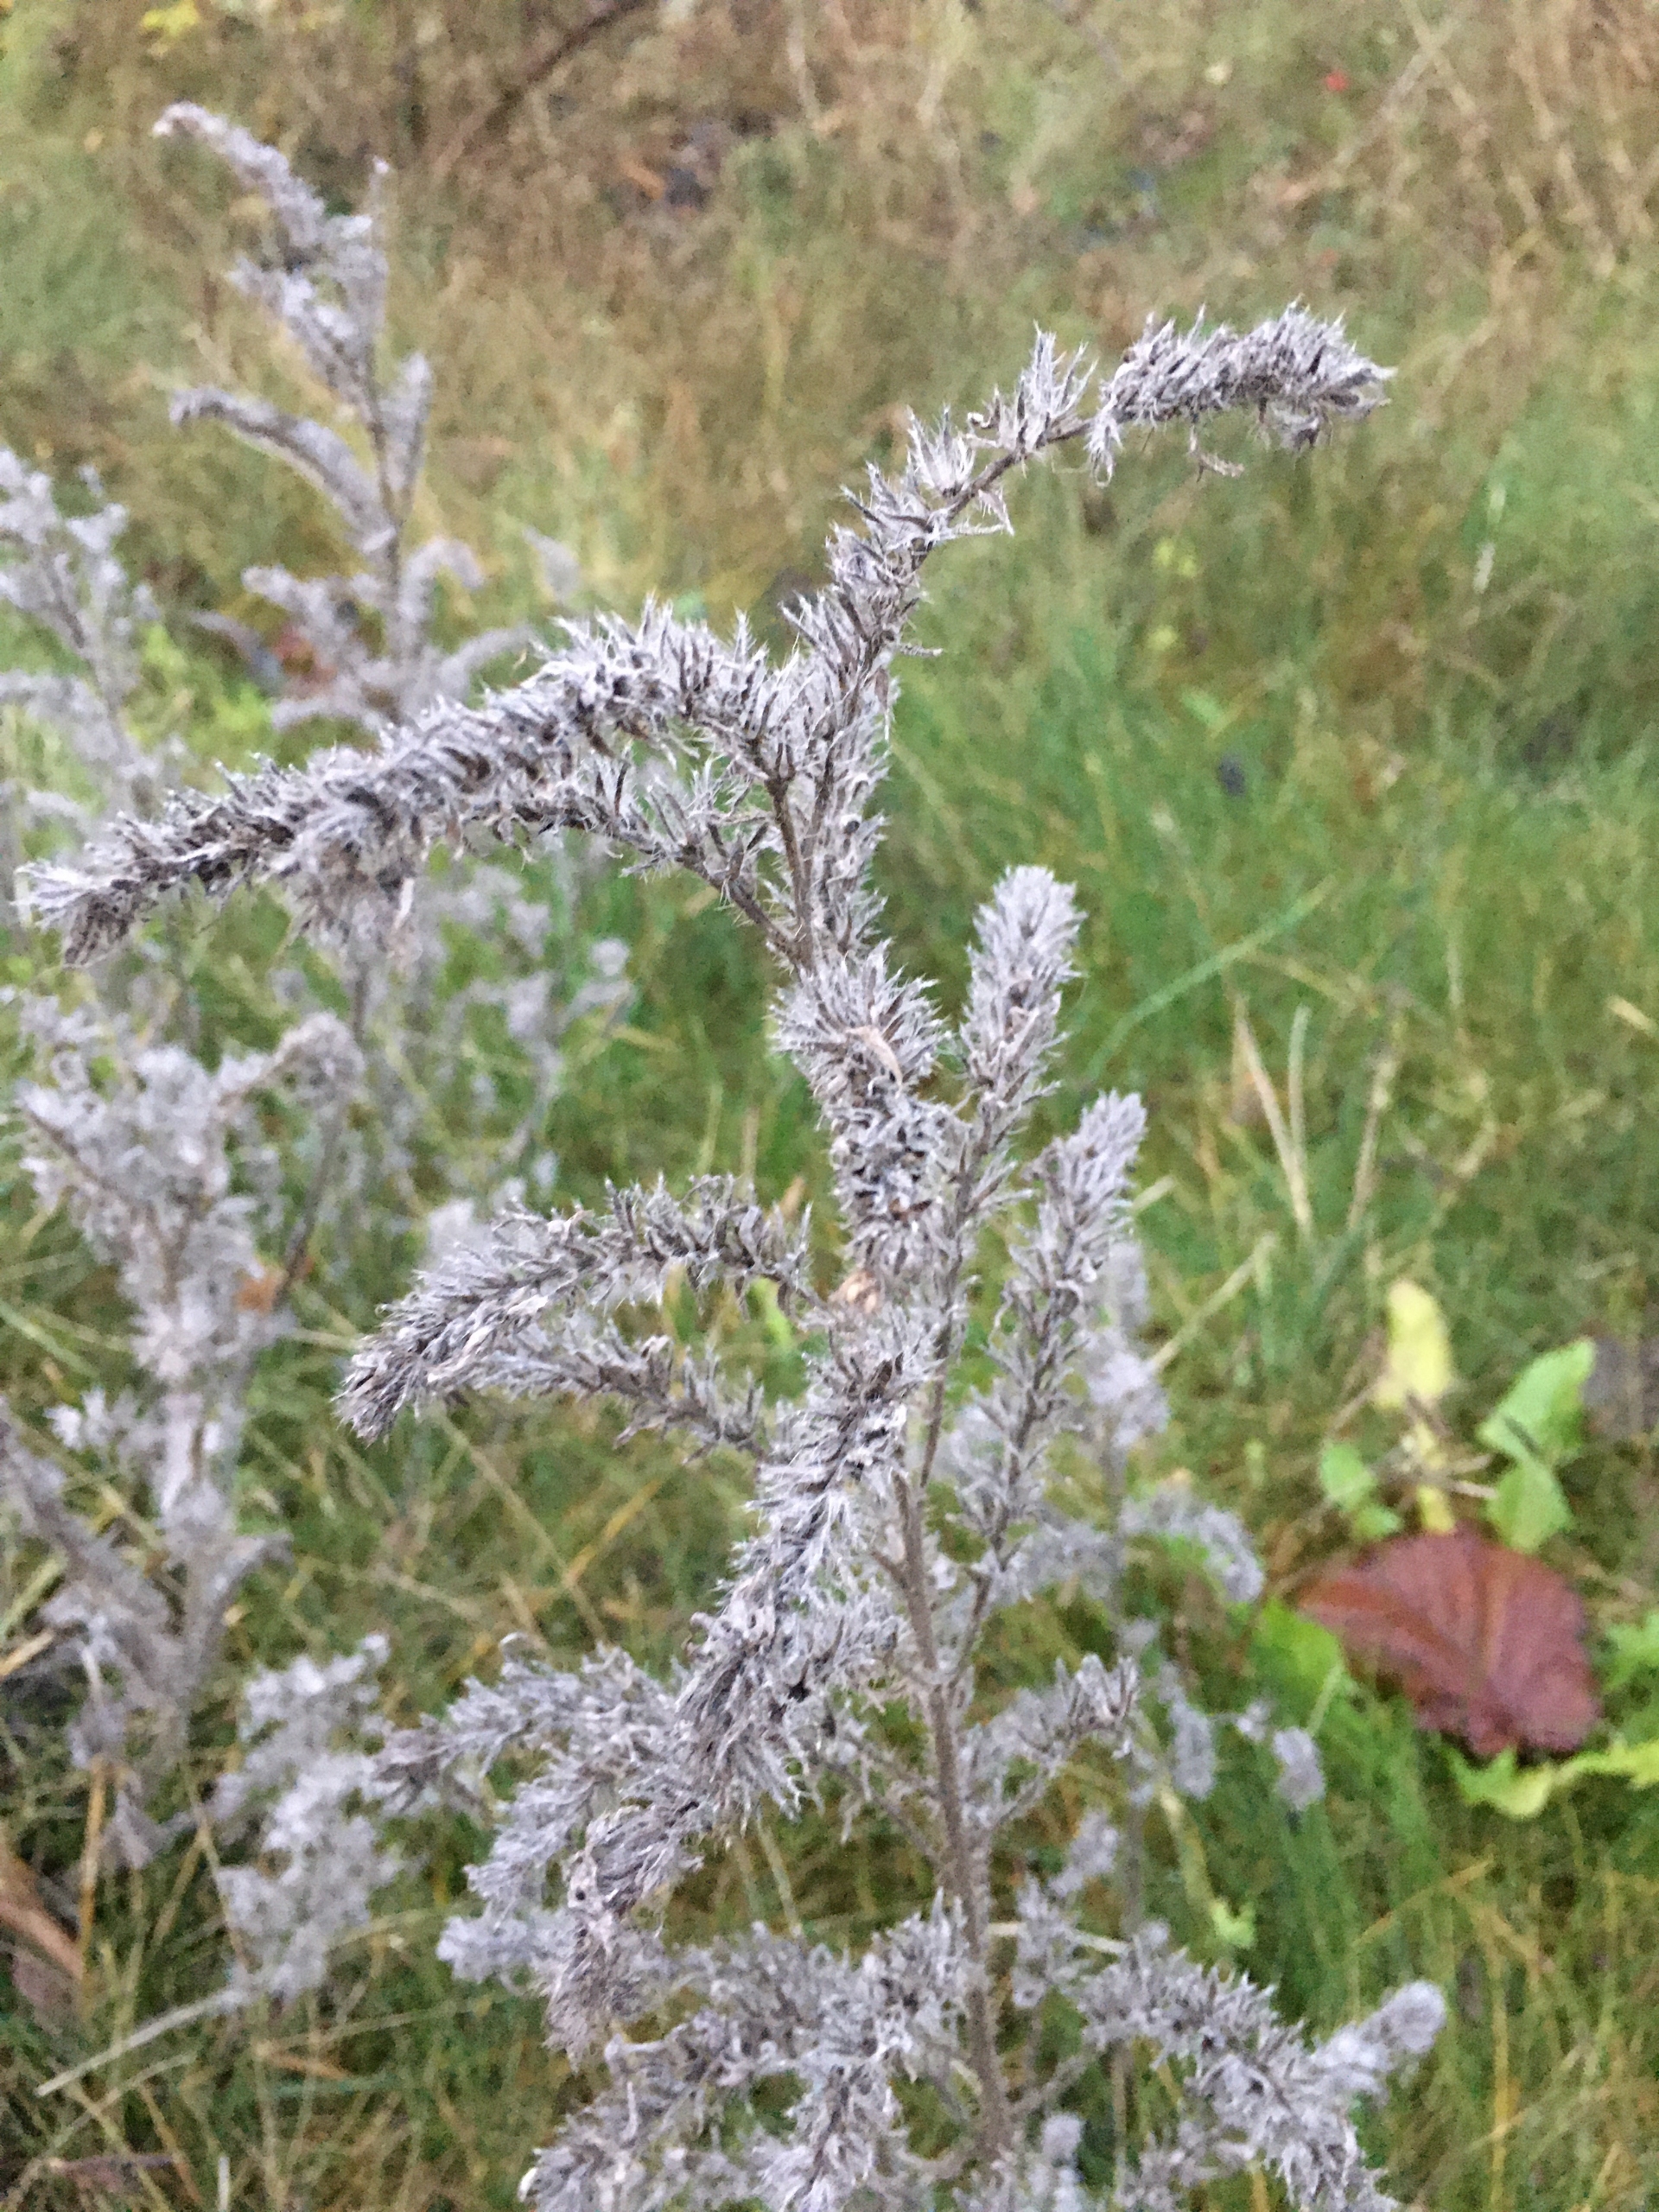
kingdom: Plantae
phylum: Tracheophyta
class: Magnoliopsida
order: Boraginales
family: Boraginaceae
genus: Echium
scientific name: Echium vulgare
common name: Slangehoved
